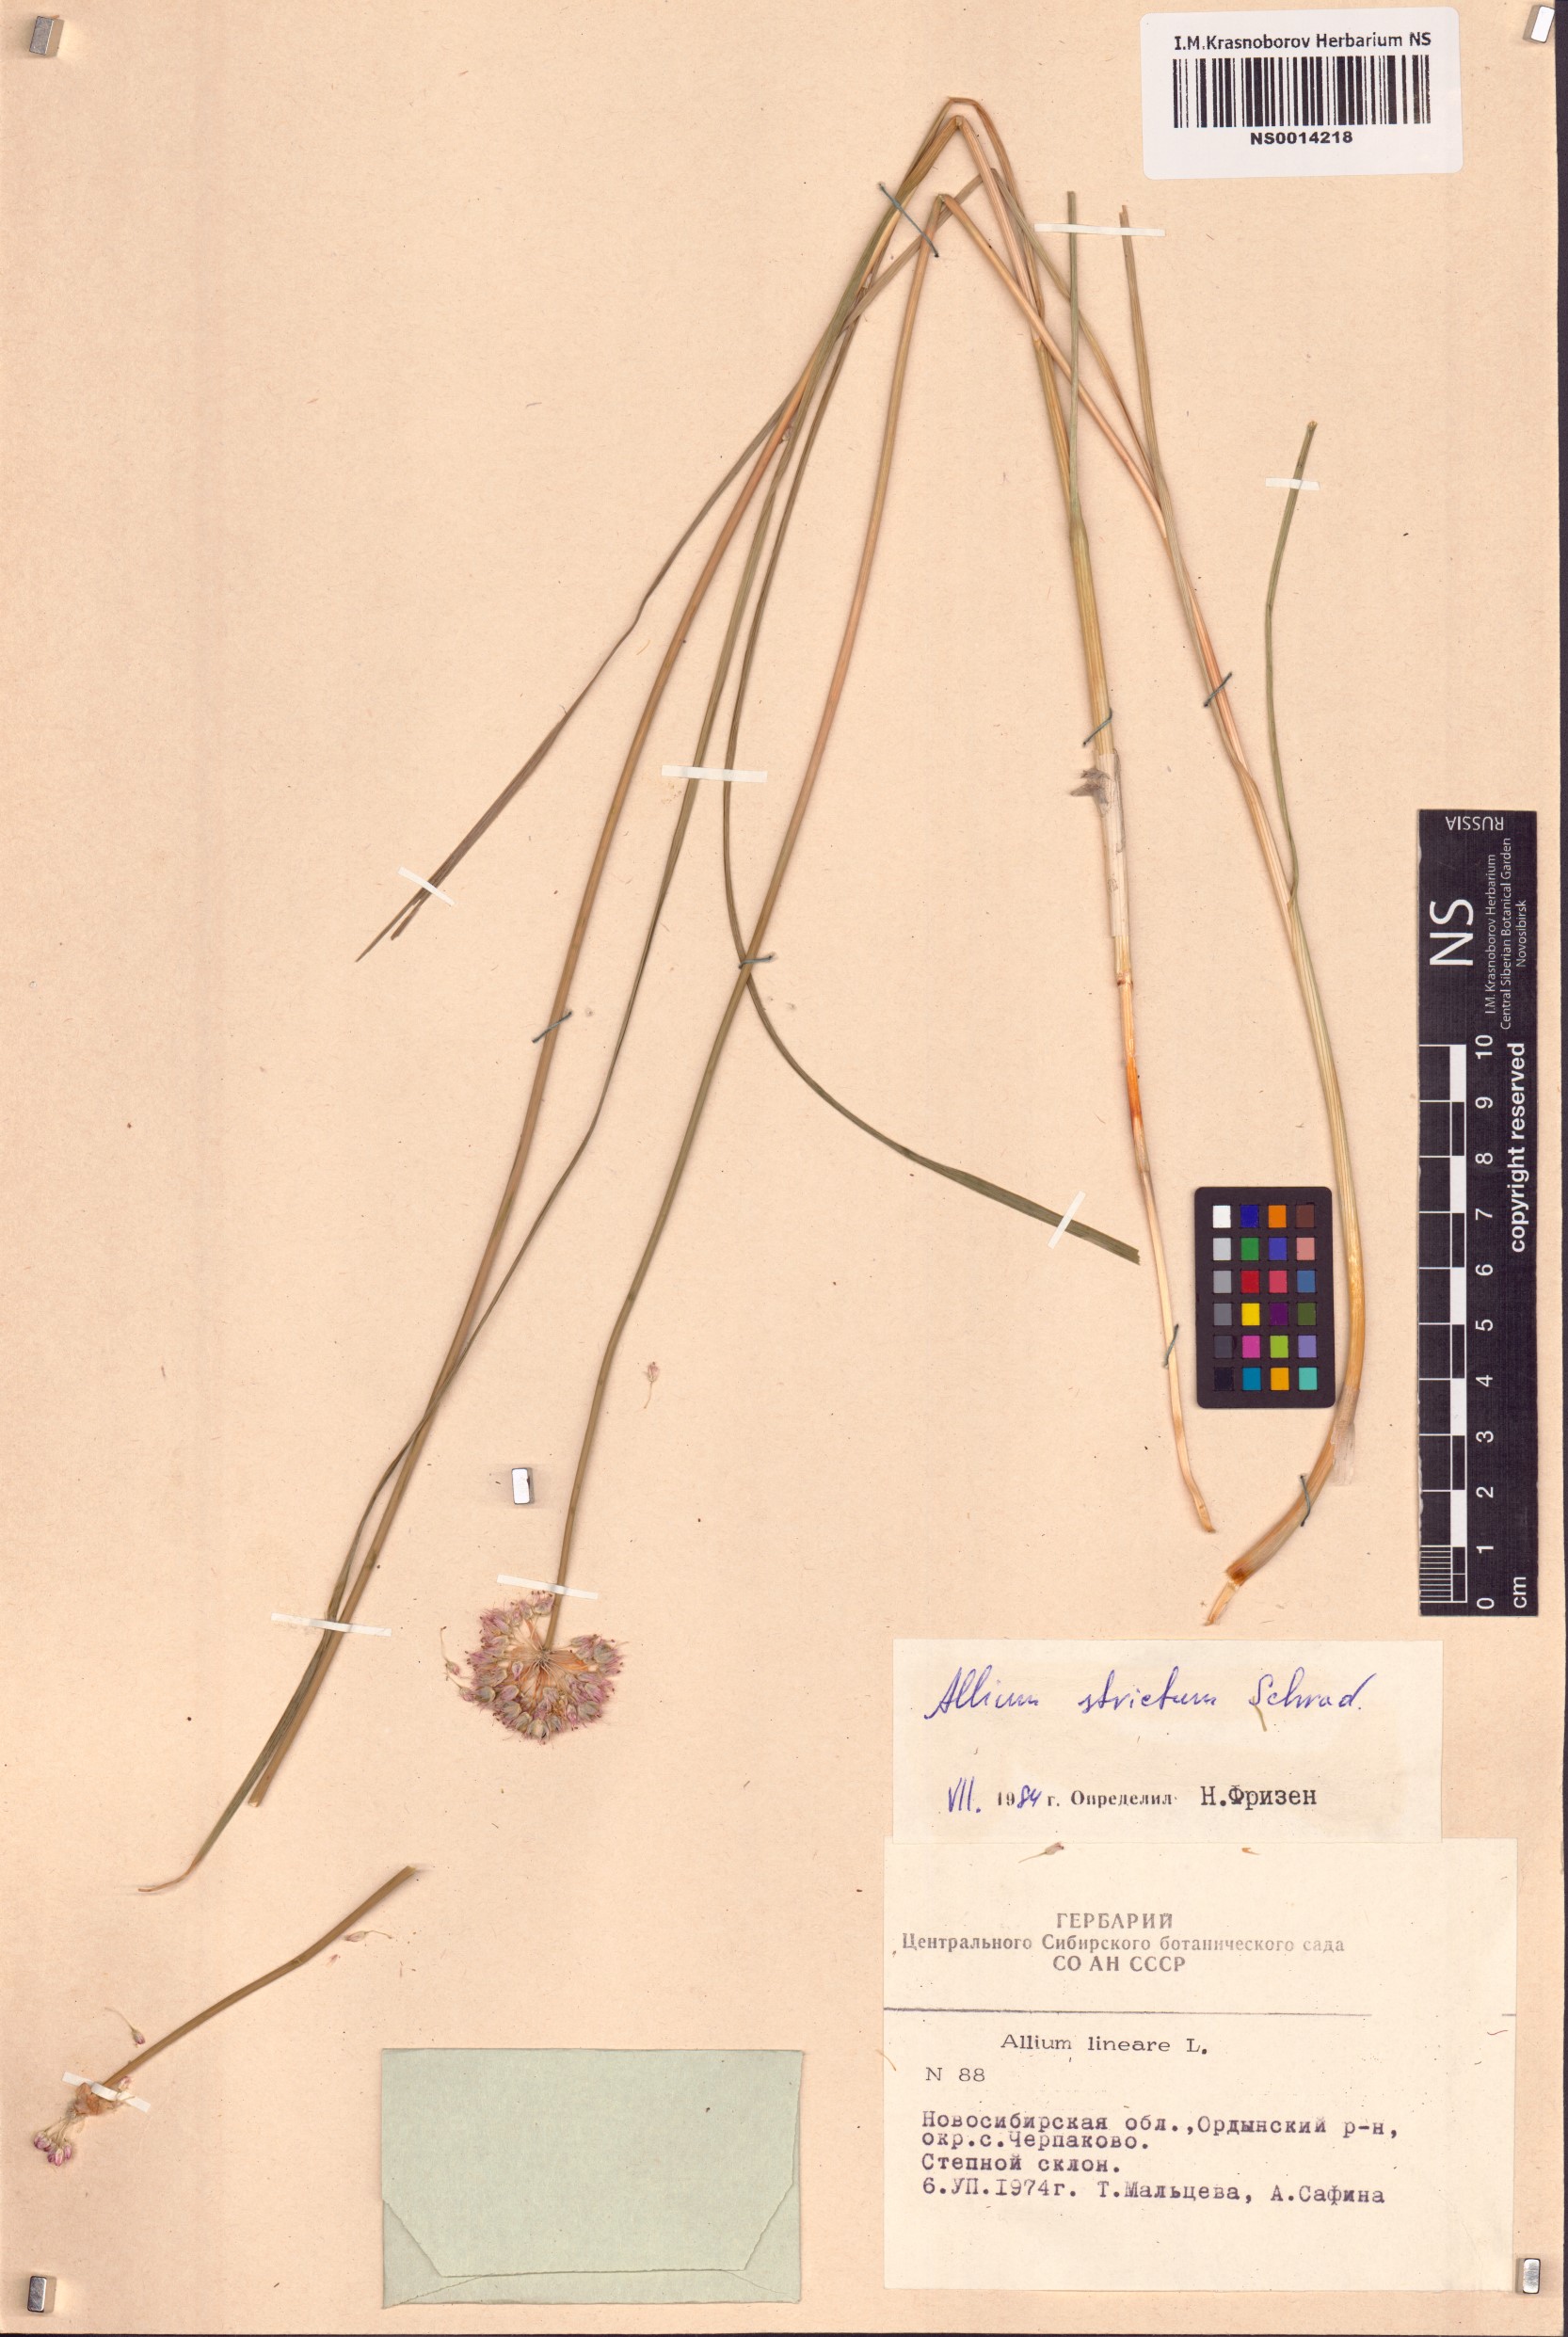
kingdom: Plantae
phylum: Tracheophyta
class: Liliopsida
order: Asparagales
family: Amaryllidaceae
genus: Allium
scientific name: Allium strictum
